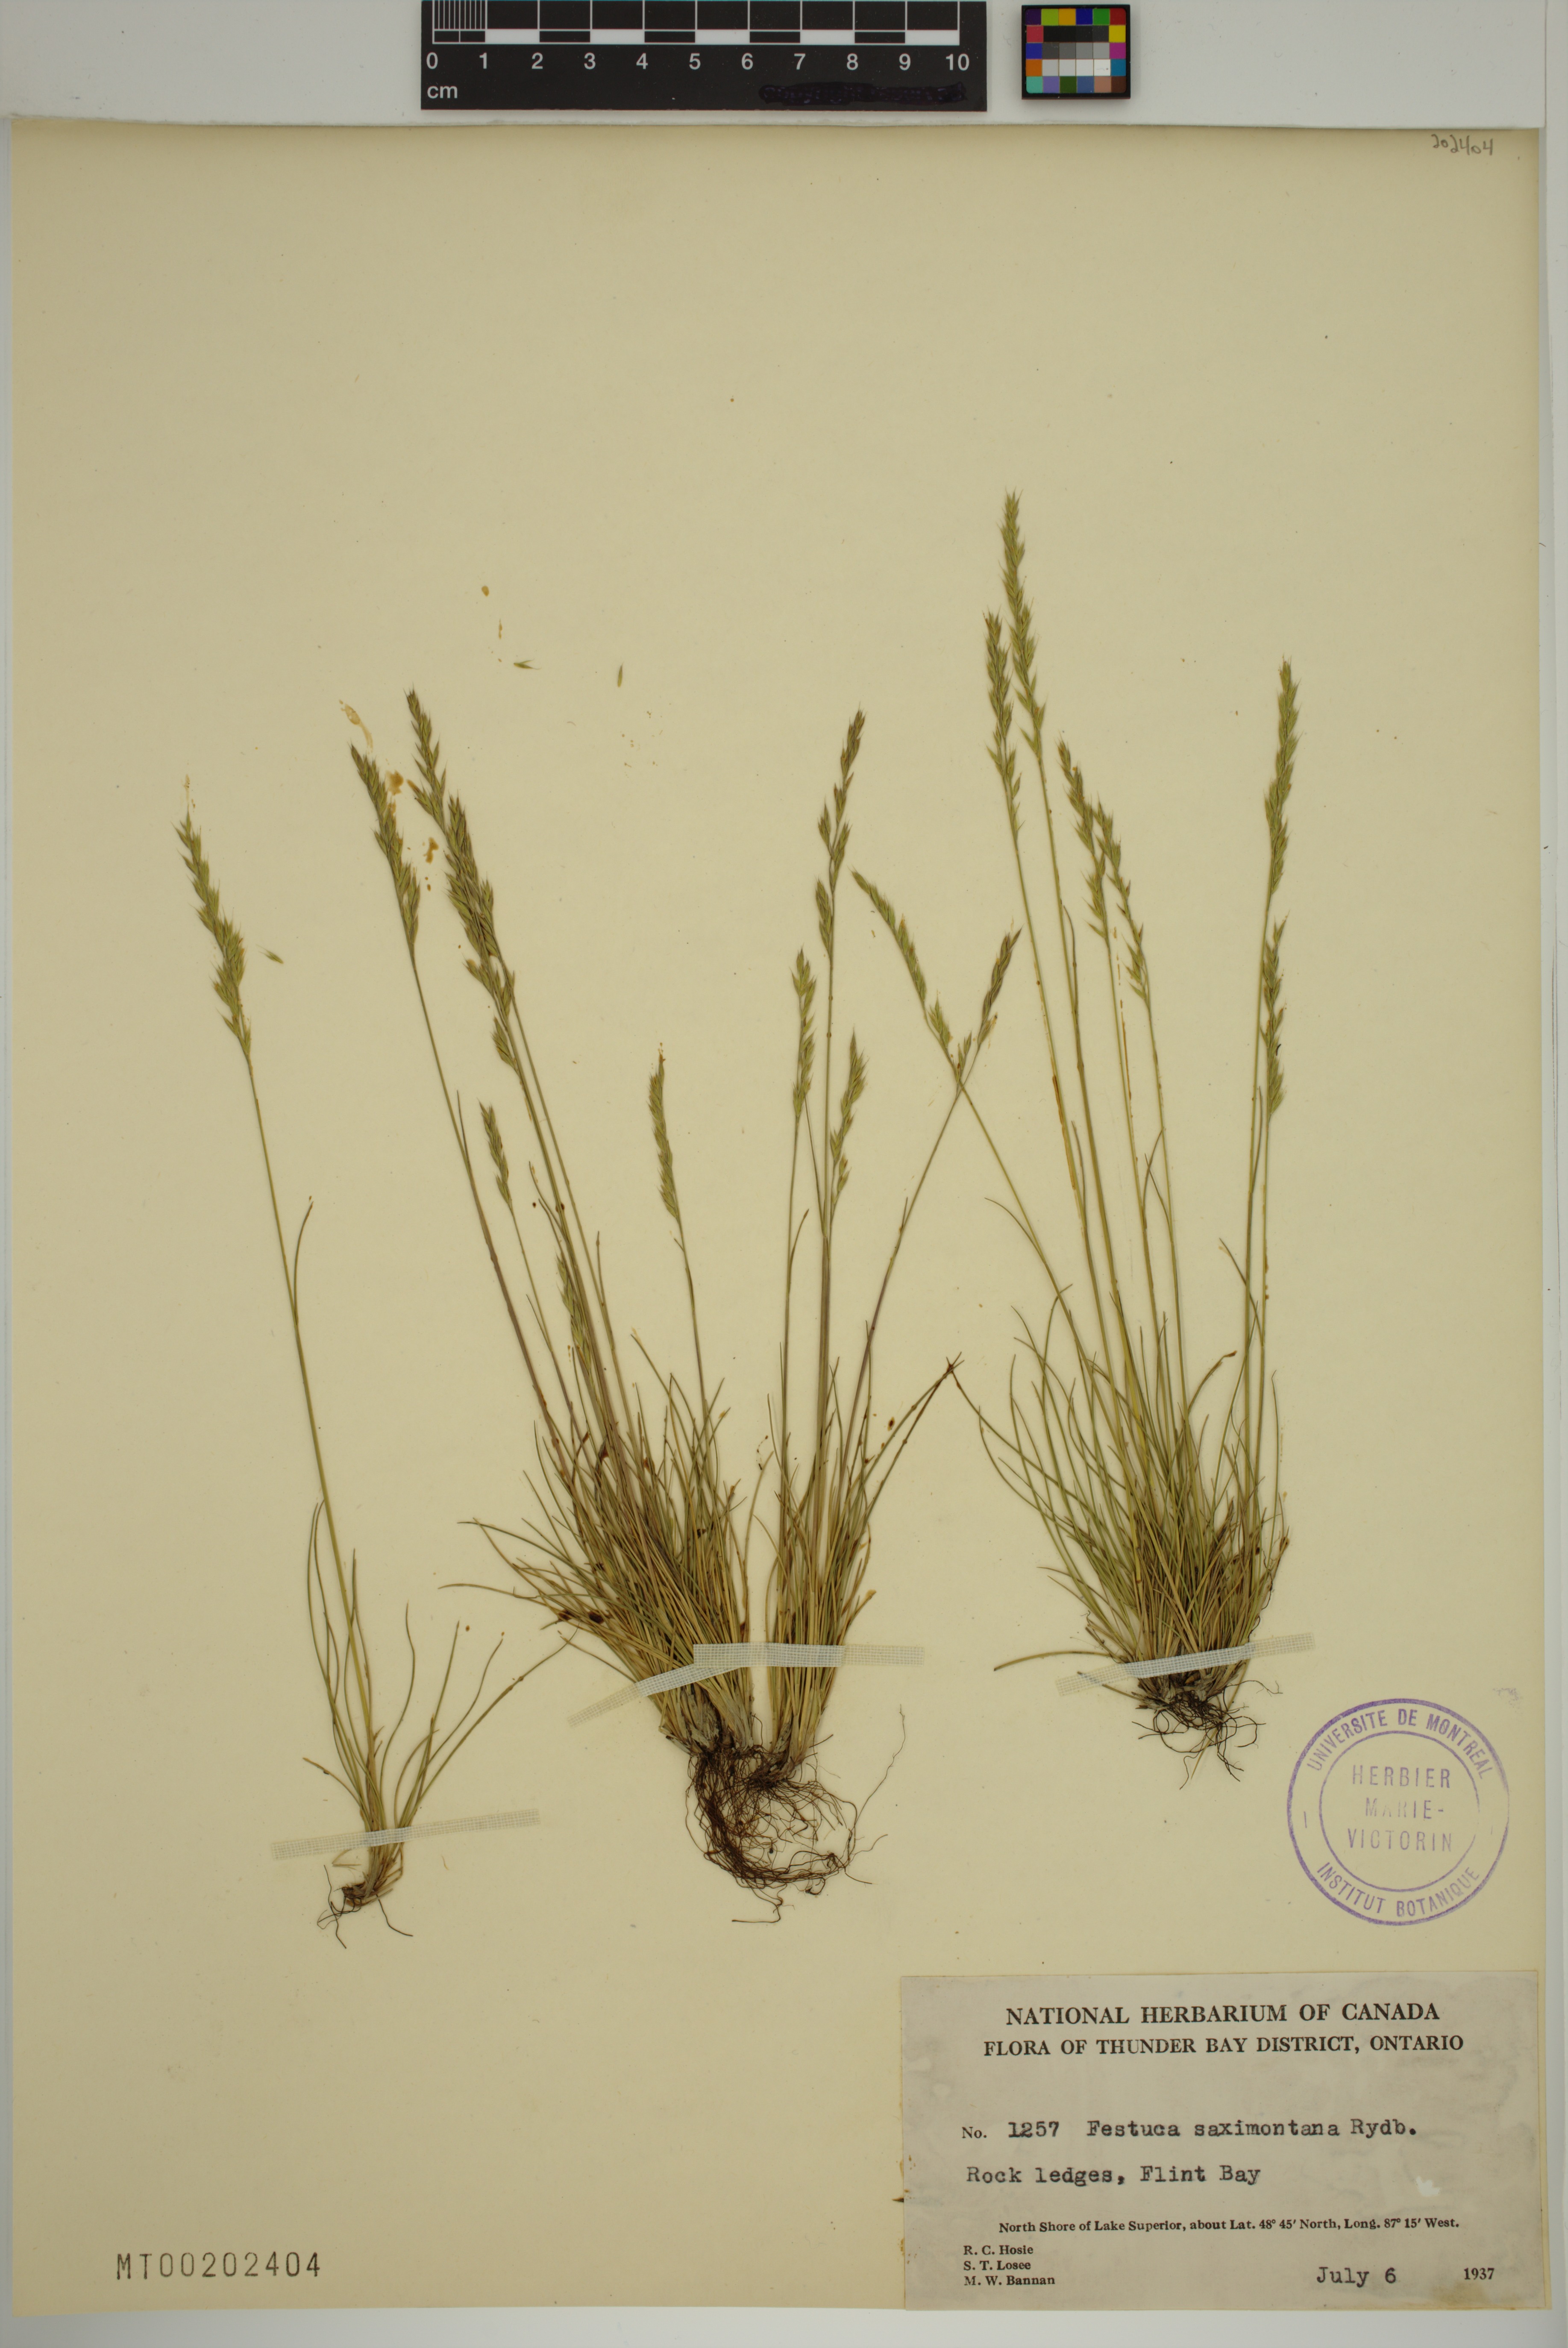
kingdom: Plantae
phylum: Tracheophyta
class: Liliopsida
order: Poales
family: Poaceae
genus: Festuca
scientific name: Festuca saximontana
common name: Mountain fescue
